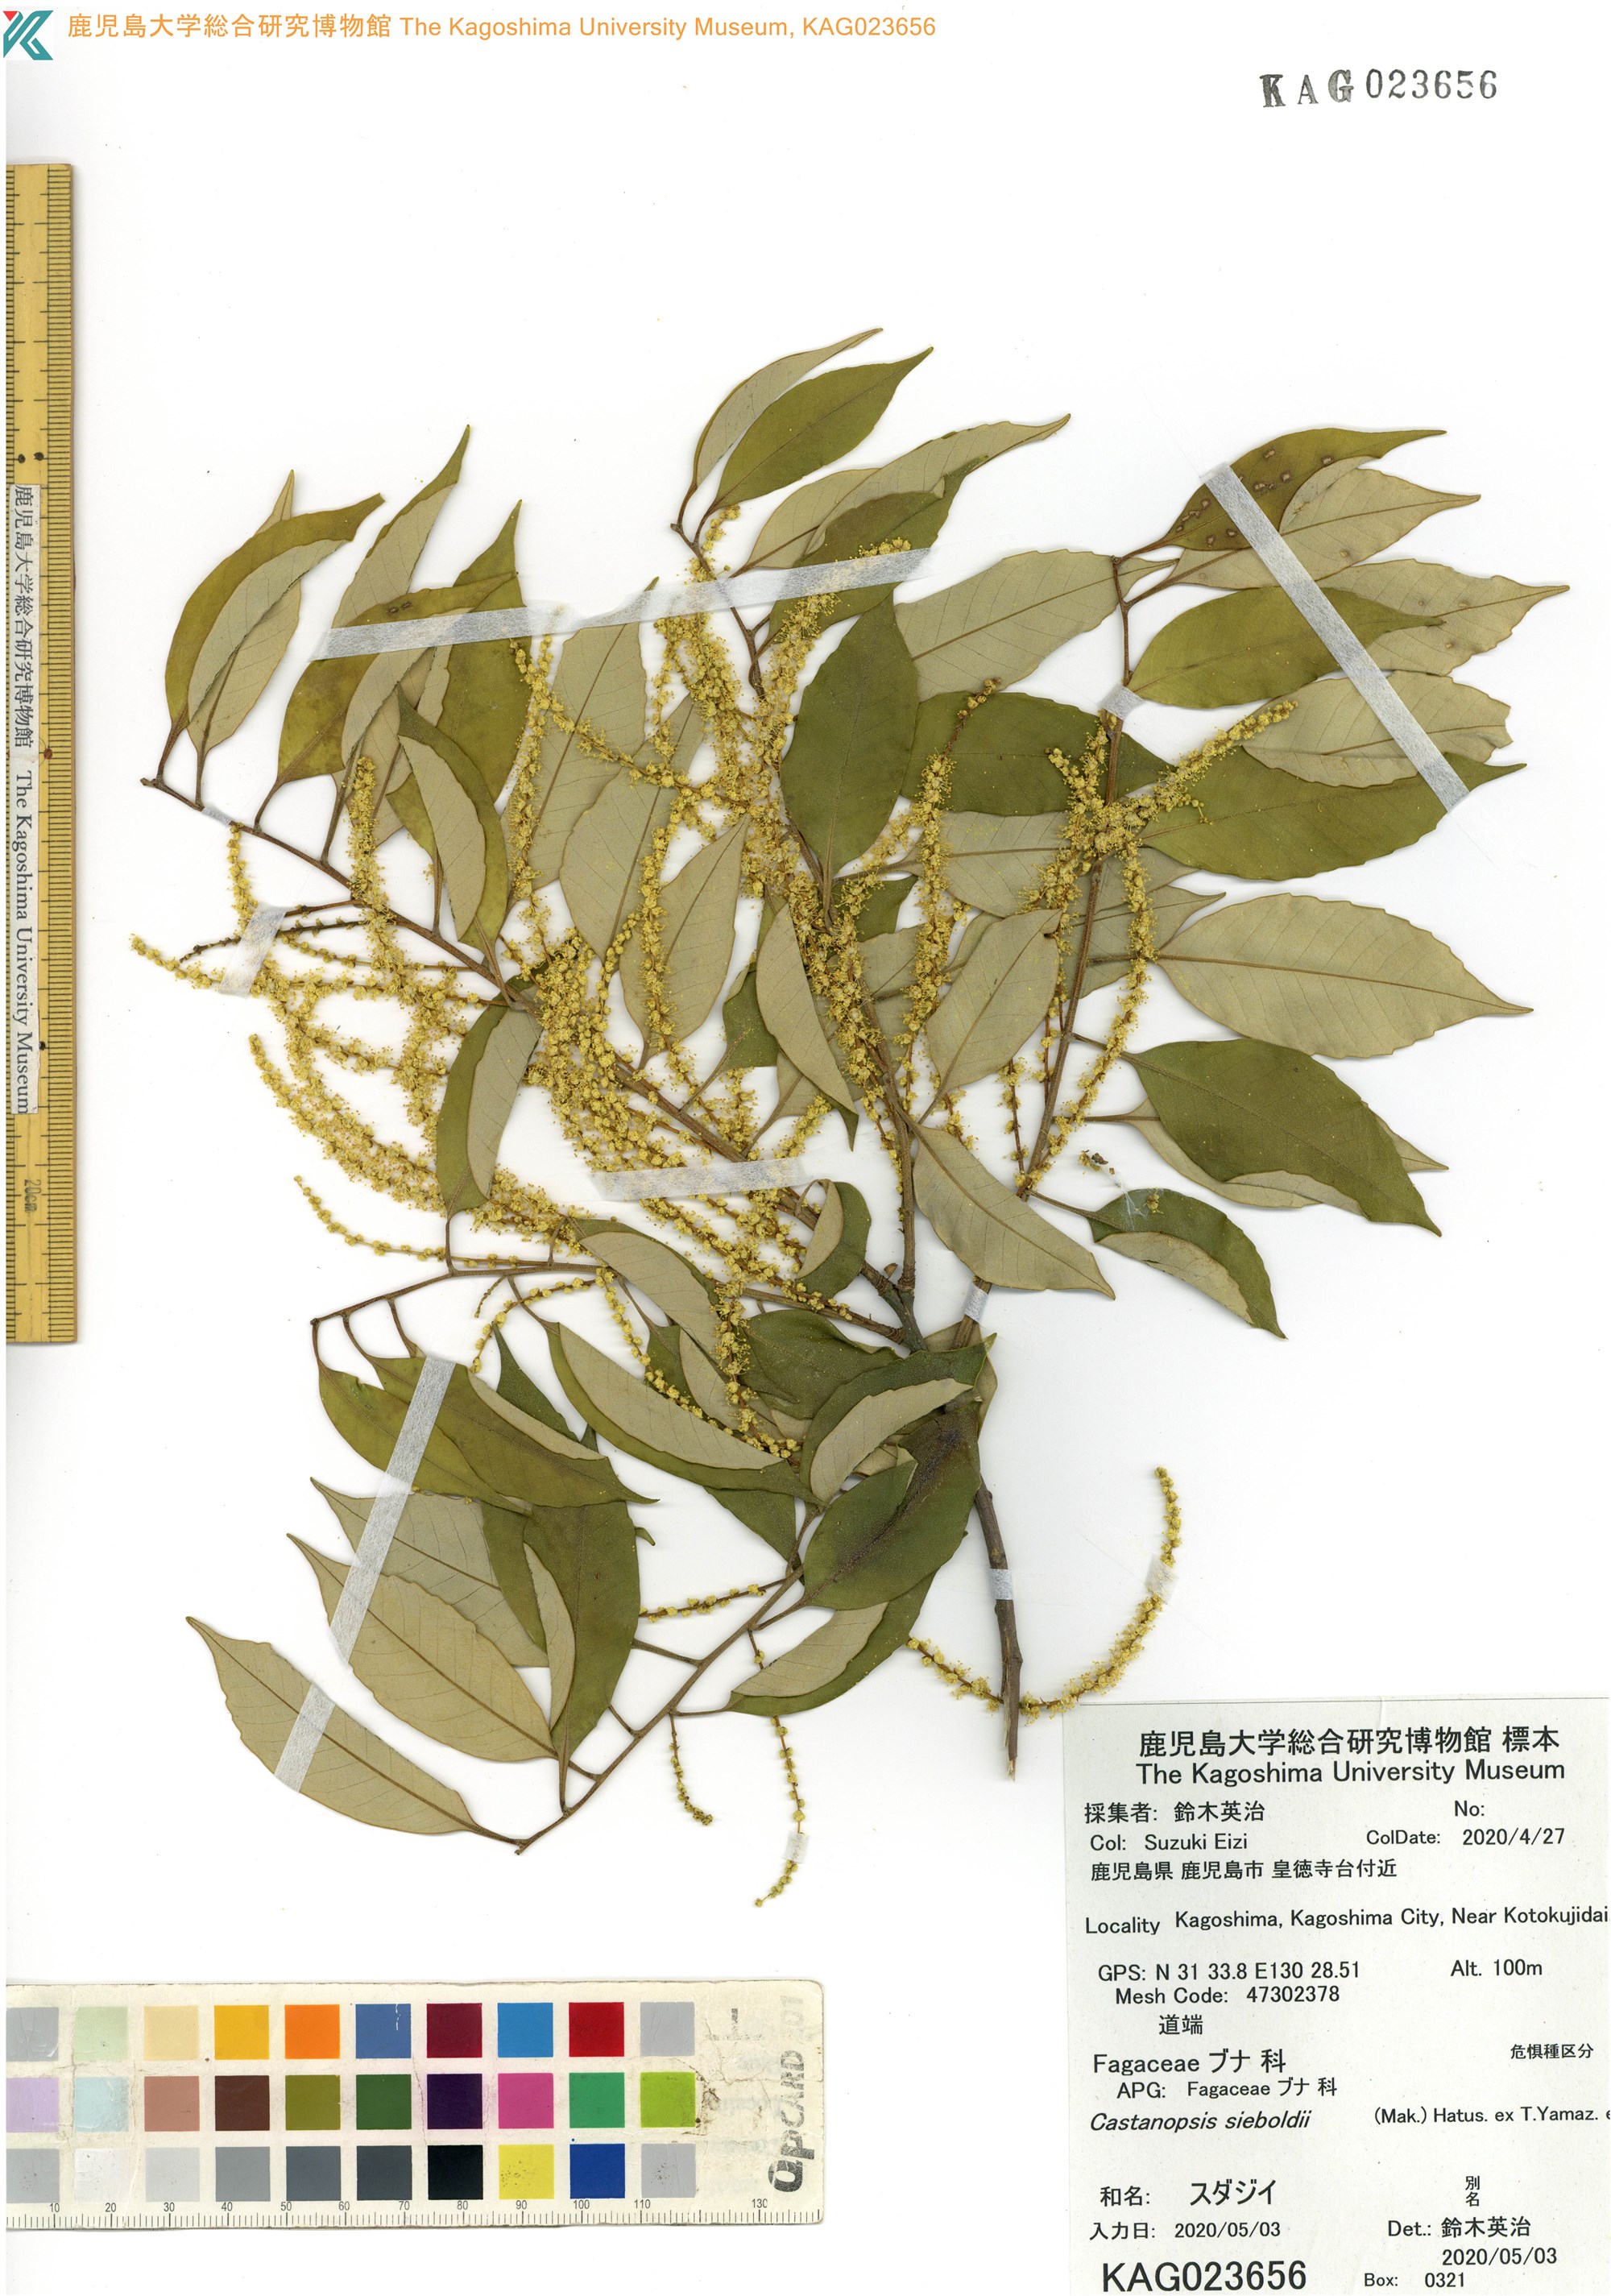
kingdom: Plantae
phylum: Tracheophyta
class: Magnoliopsida
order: Fagales
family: Fagaceae
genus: Castanopsis
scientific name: Castanopsis sieboldii
